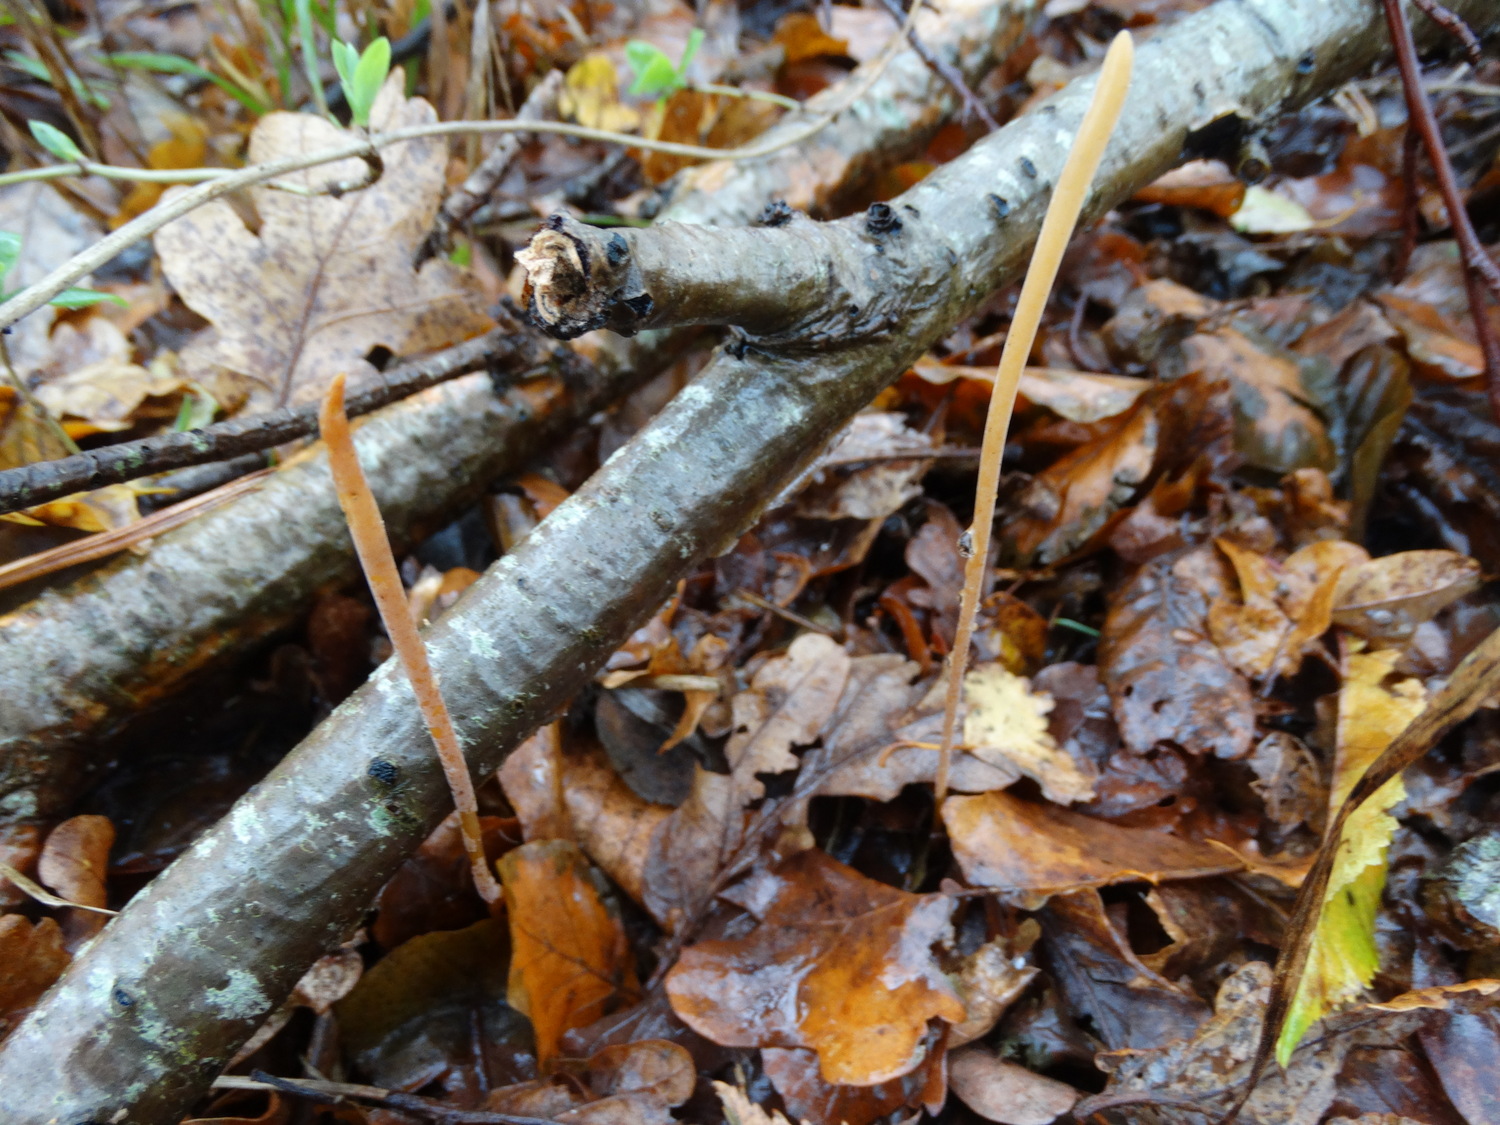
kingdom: Fungi
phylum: Basidiomycota
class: Agaricomycetes
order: Agaricales
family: Typhulaceae
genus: Typhula
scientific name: Typhula fistulosa
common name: pibet rørkølle
